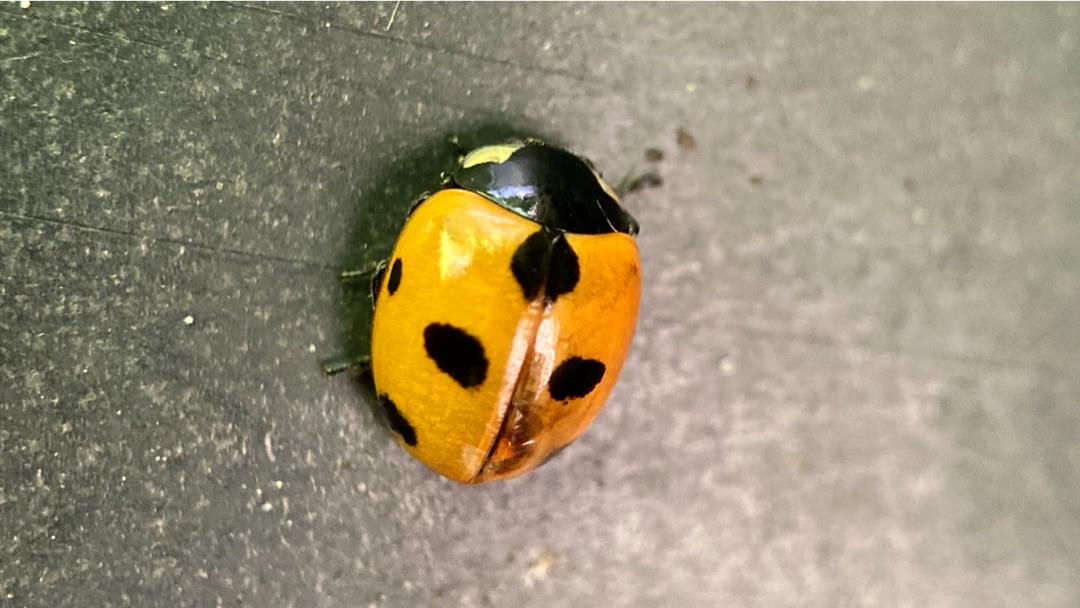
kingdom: Animalia
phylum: Arthropoda
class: Insecta
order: Coleoptera
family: Coccinellidae
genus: Coccinella
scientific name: Coccinella magnifica
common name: Myremariehøne
